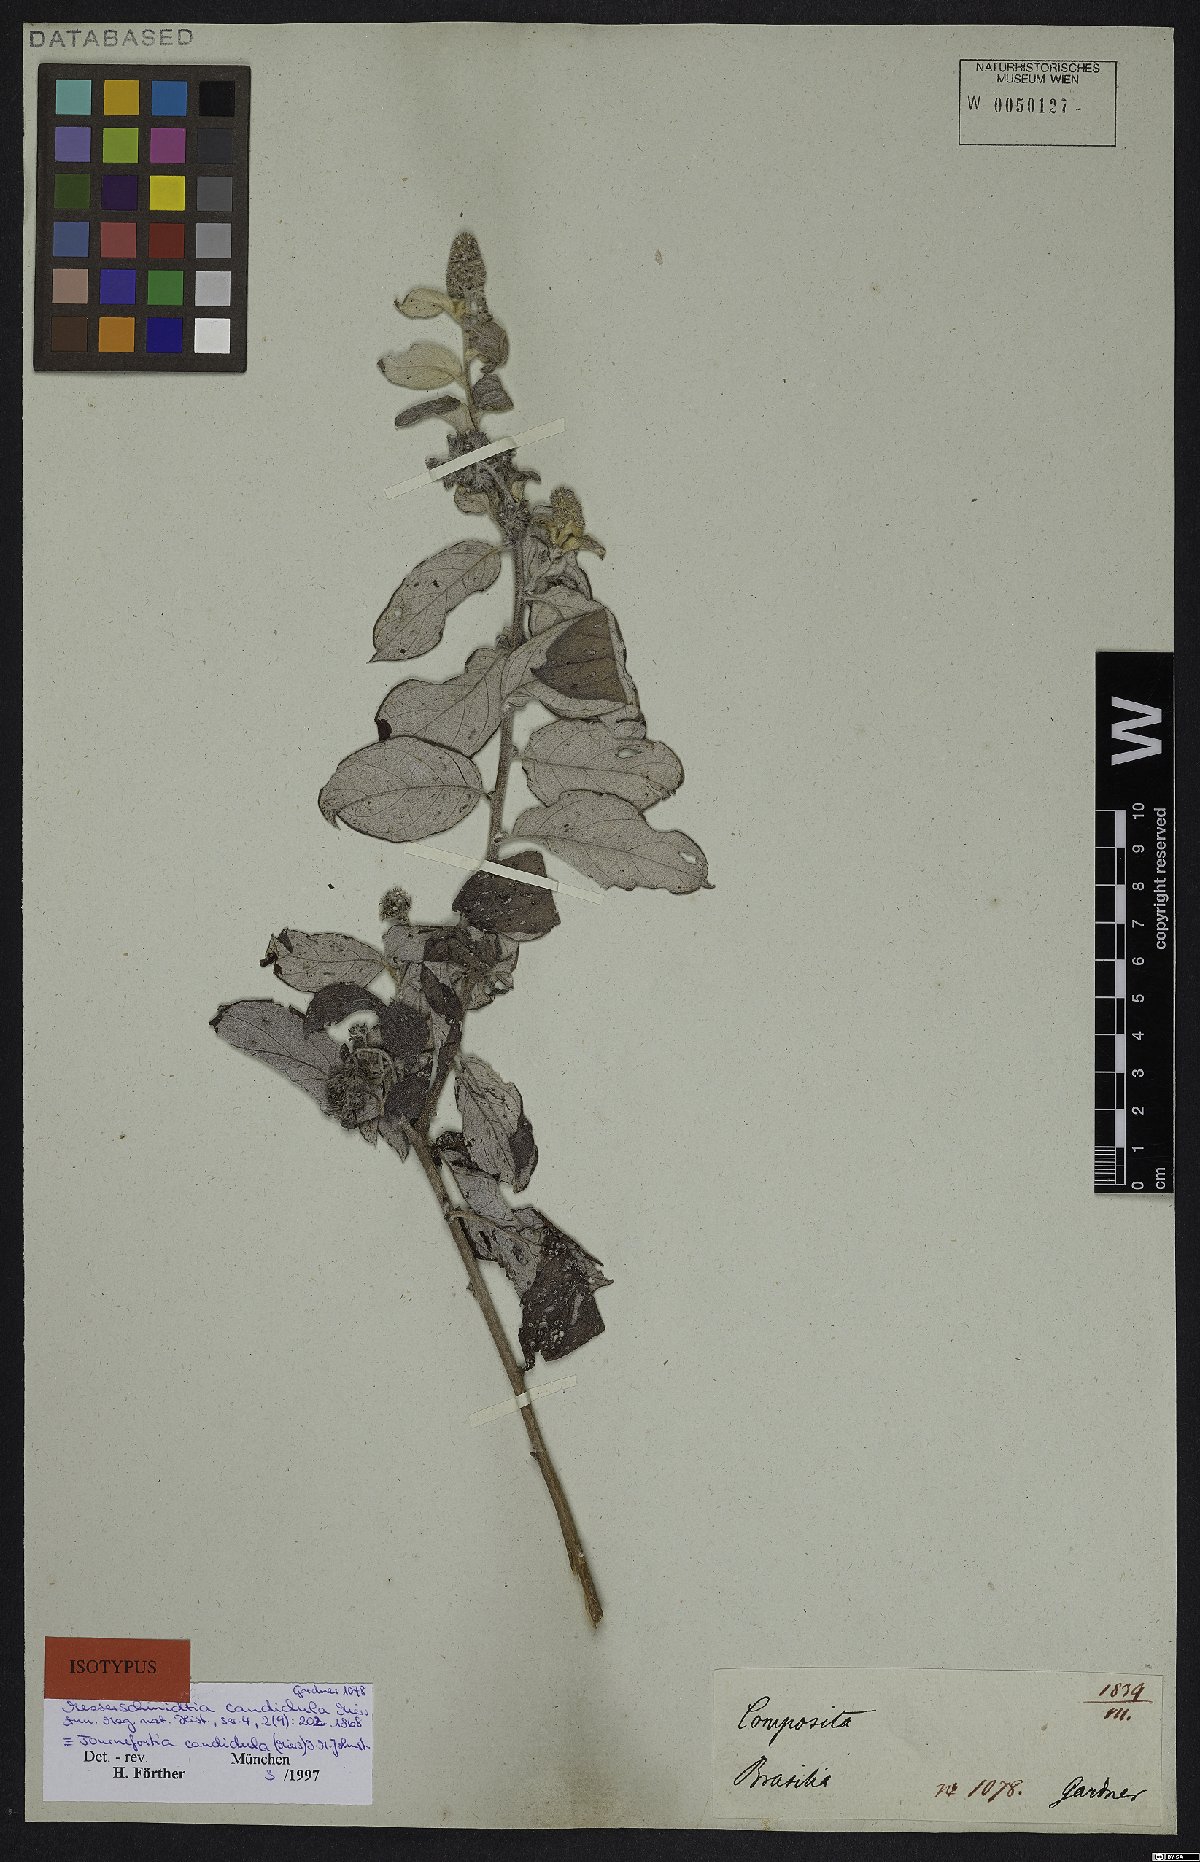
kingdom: Plantae
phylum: Tracheophyta
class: Magnoliopsida
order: Boraginales
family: Heliotropiaceae
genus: Myriopus
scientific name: Myriopus candidulus
